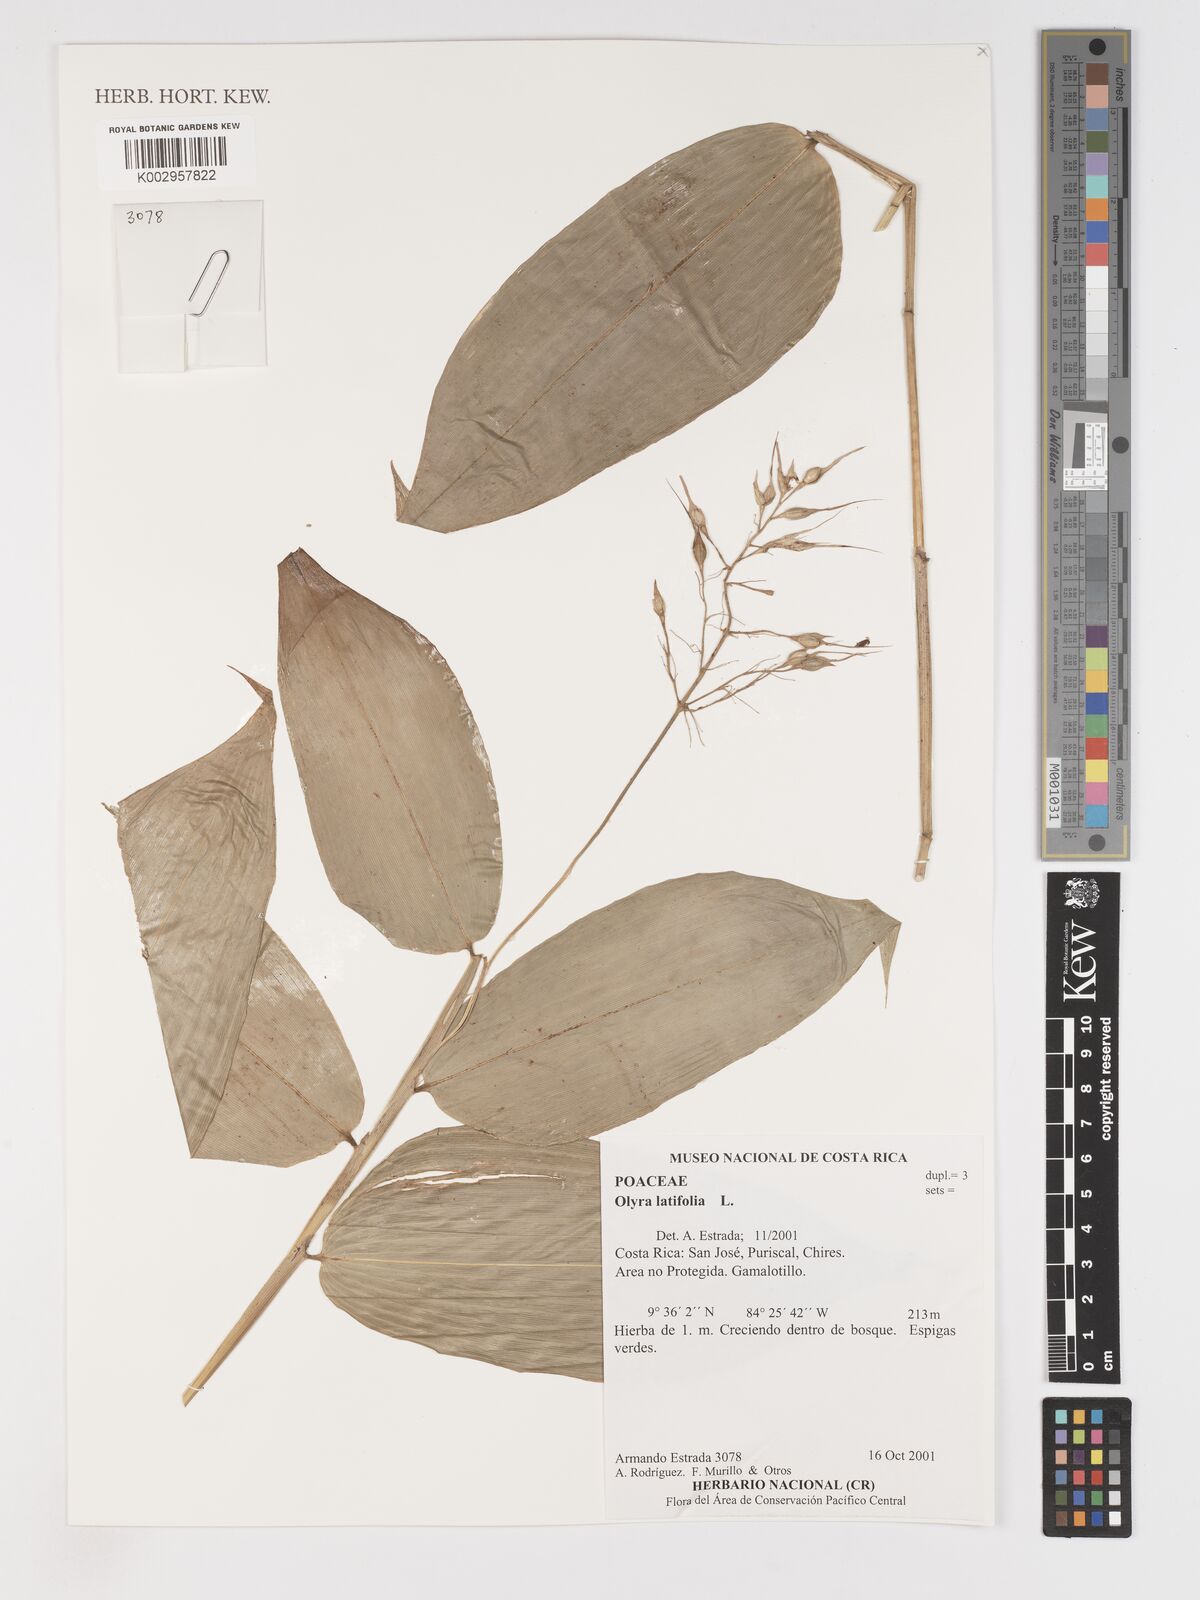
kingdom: Plantae
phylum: Tracheophyta
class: Liliopsida
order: Poales
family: Poaceae
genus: Olyra
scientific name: Olyra latifolia
